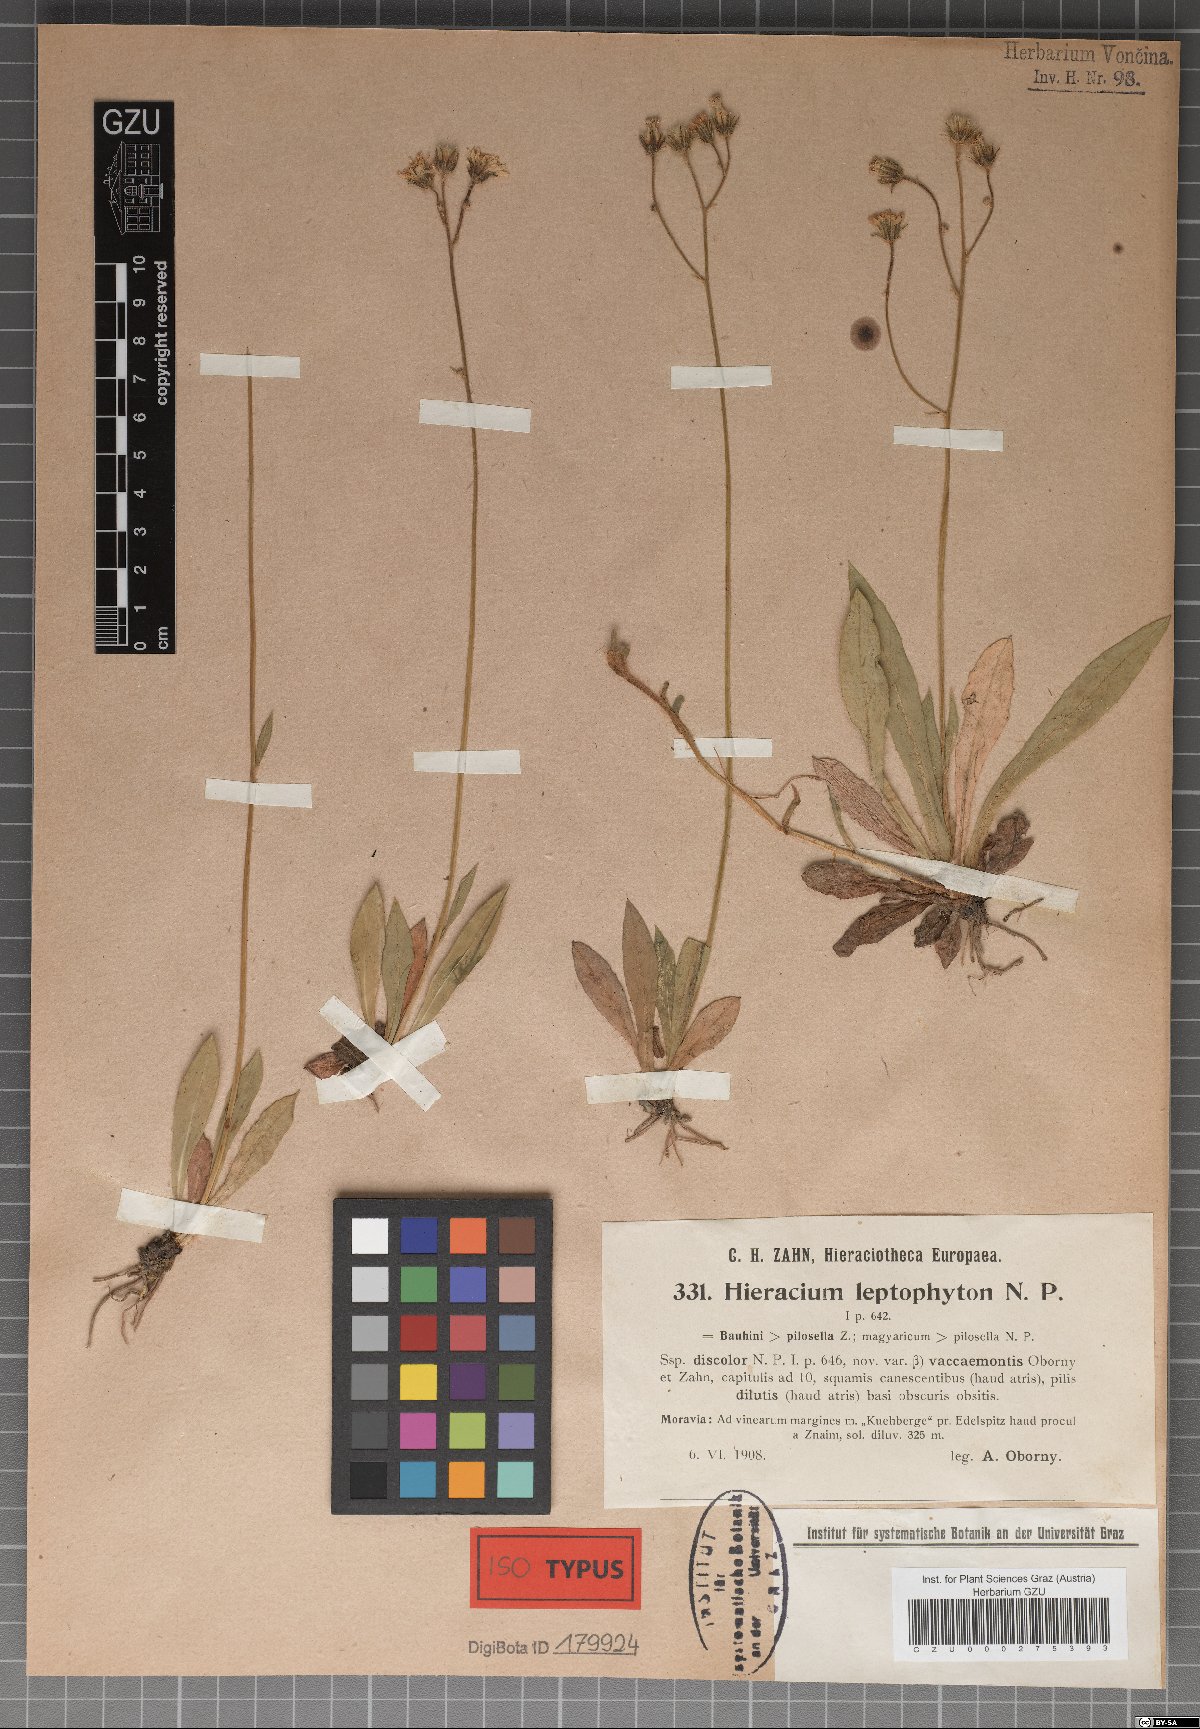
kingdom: Plantae
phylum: Tracheophyta
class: Magnoliopsida
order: Asterales
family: Asteraceae
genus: Pilosella
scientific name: Pilosella leptophyton
